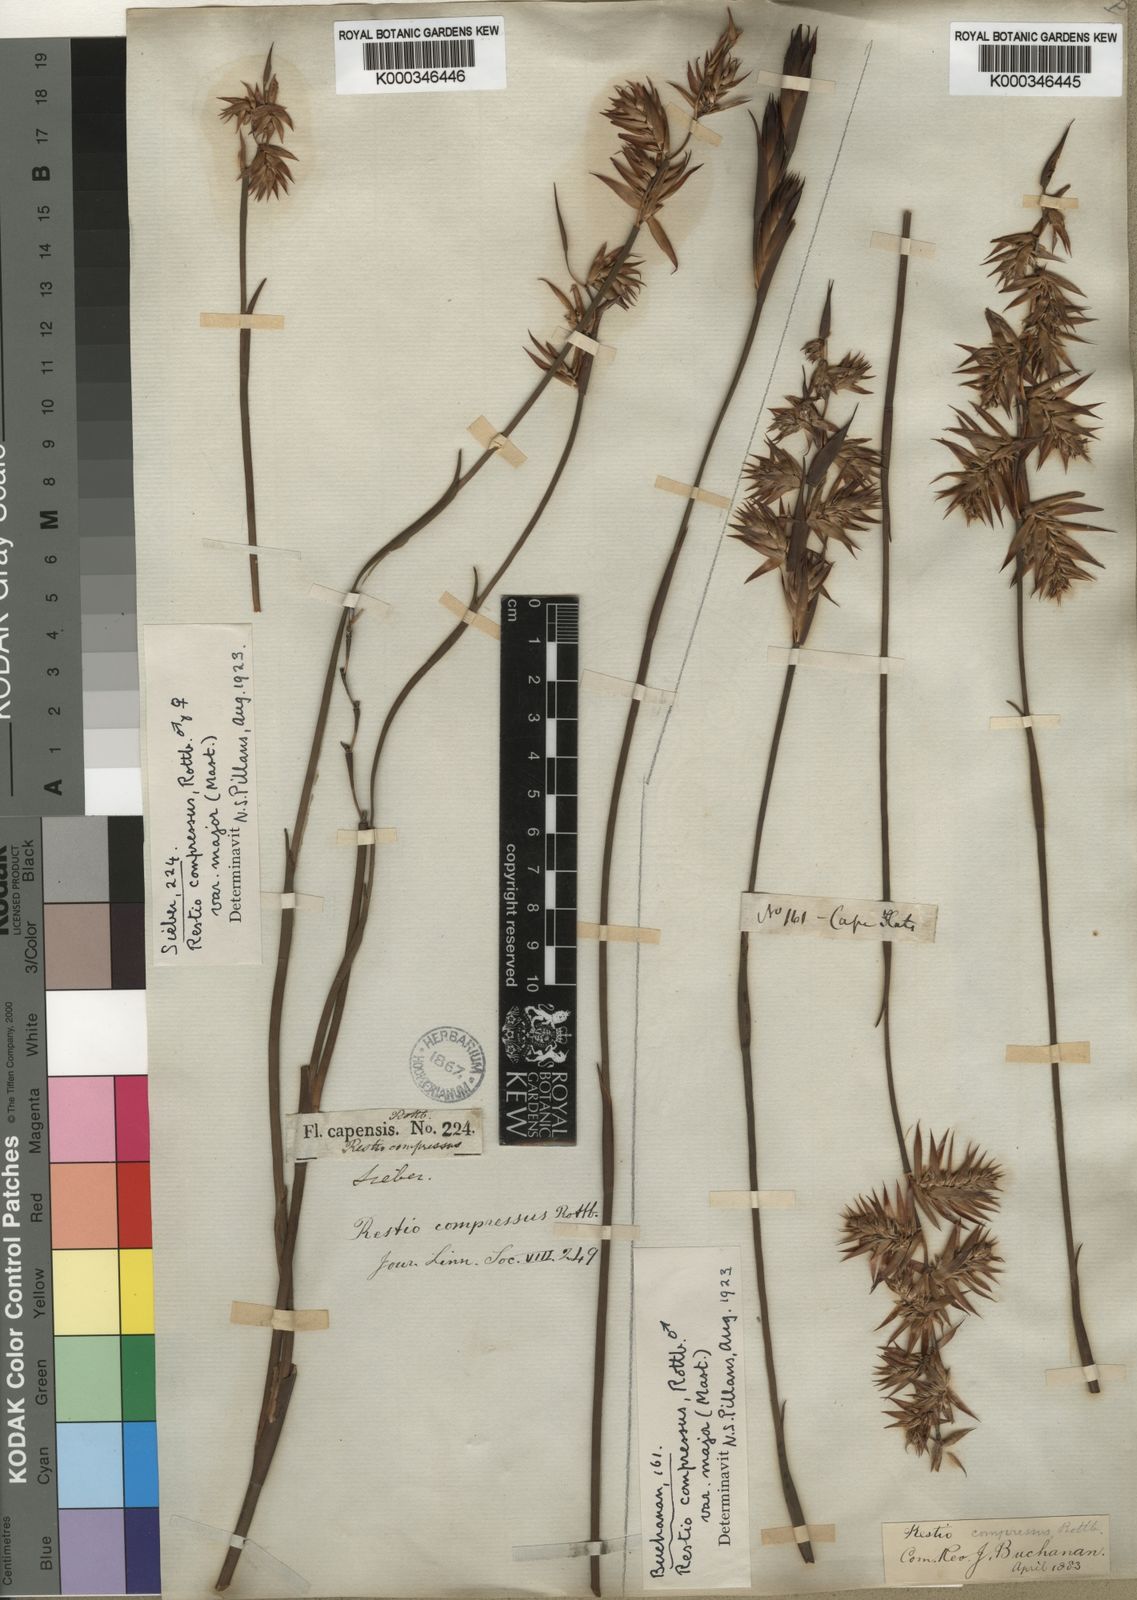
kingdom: Plantae
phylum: Tracheophyta
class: Liliopsida
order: Poales
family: Restionaceae
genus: Platycaulos
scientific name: Platycaulos major
